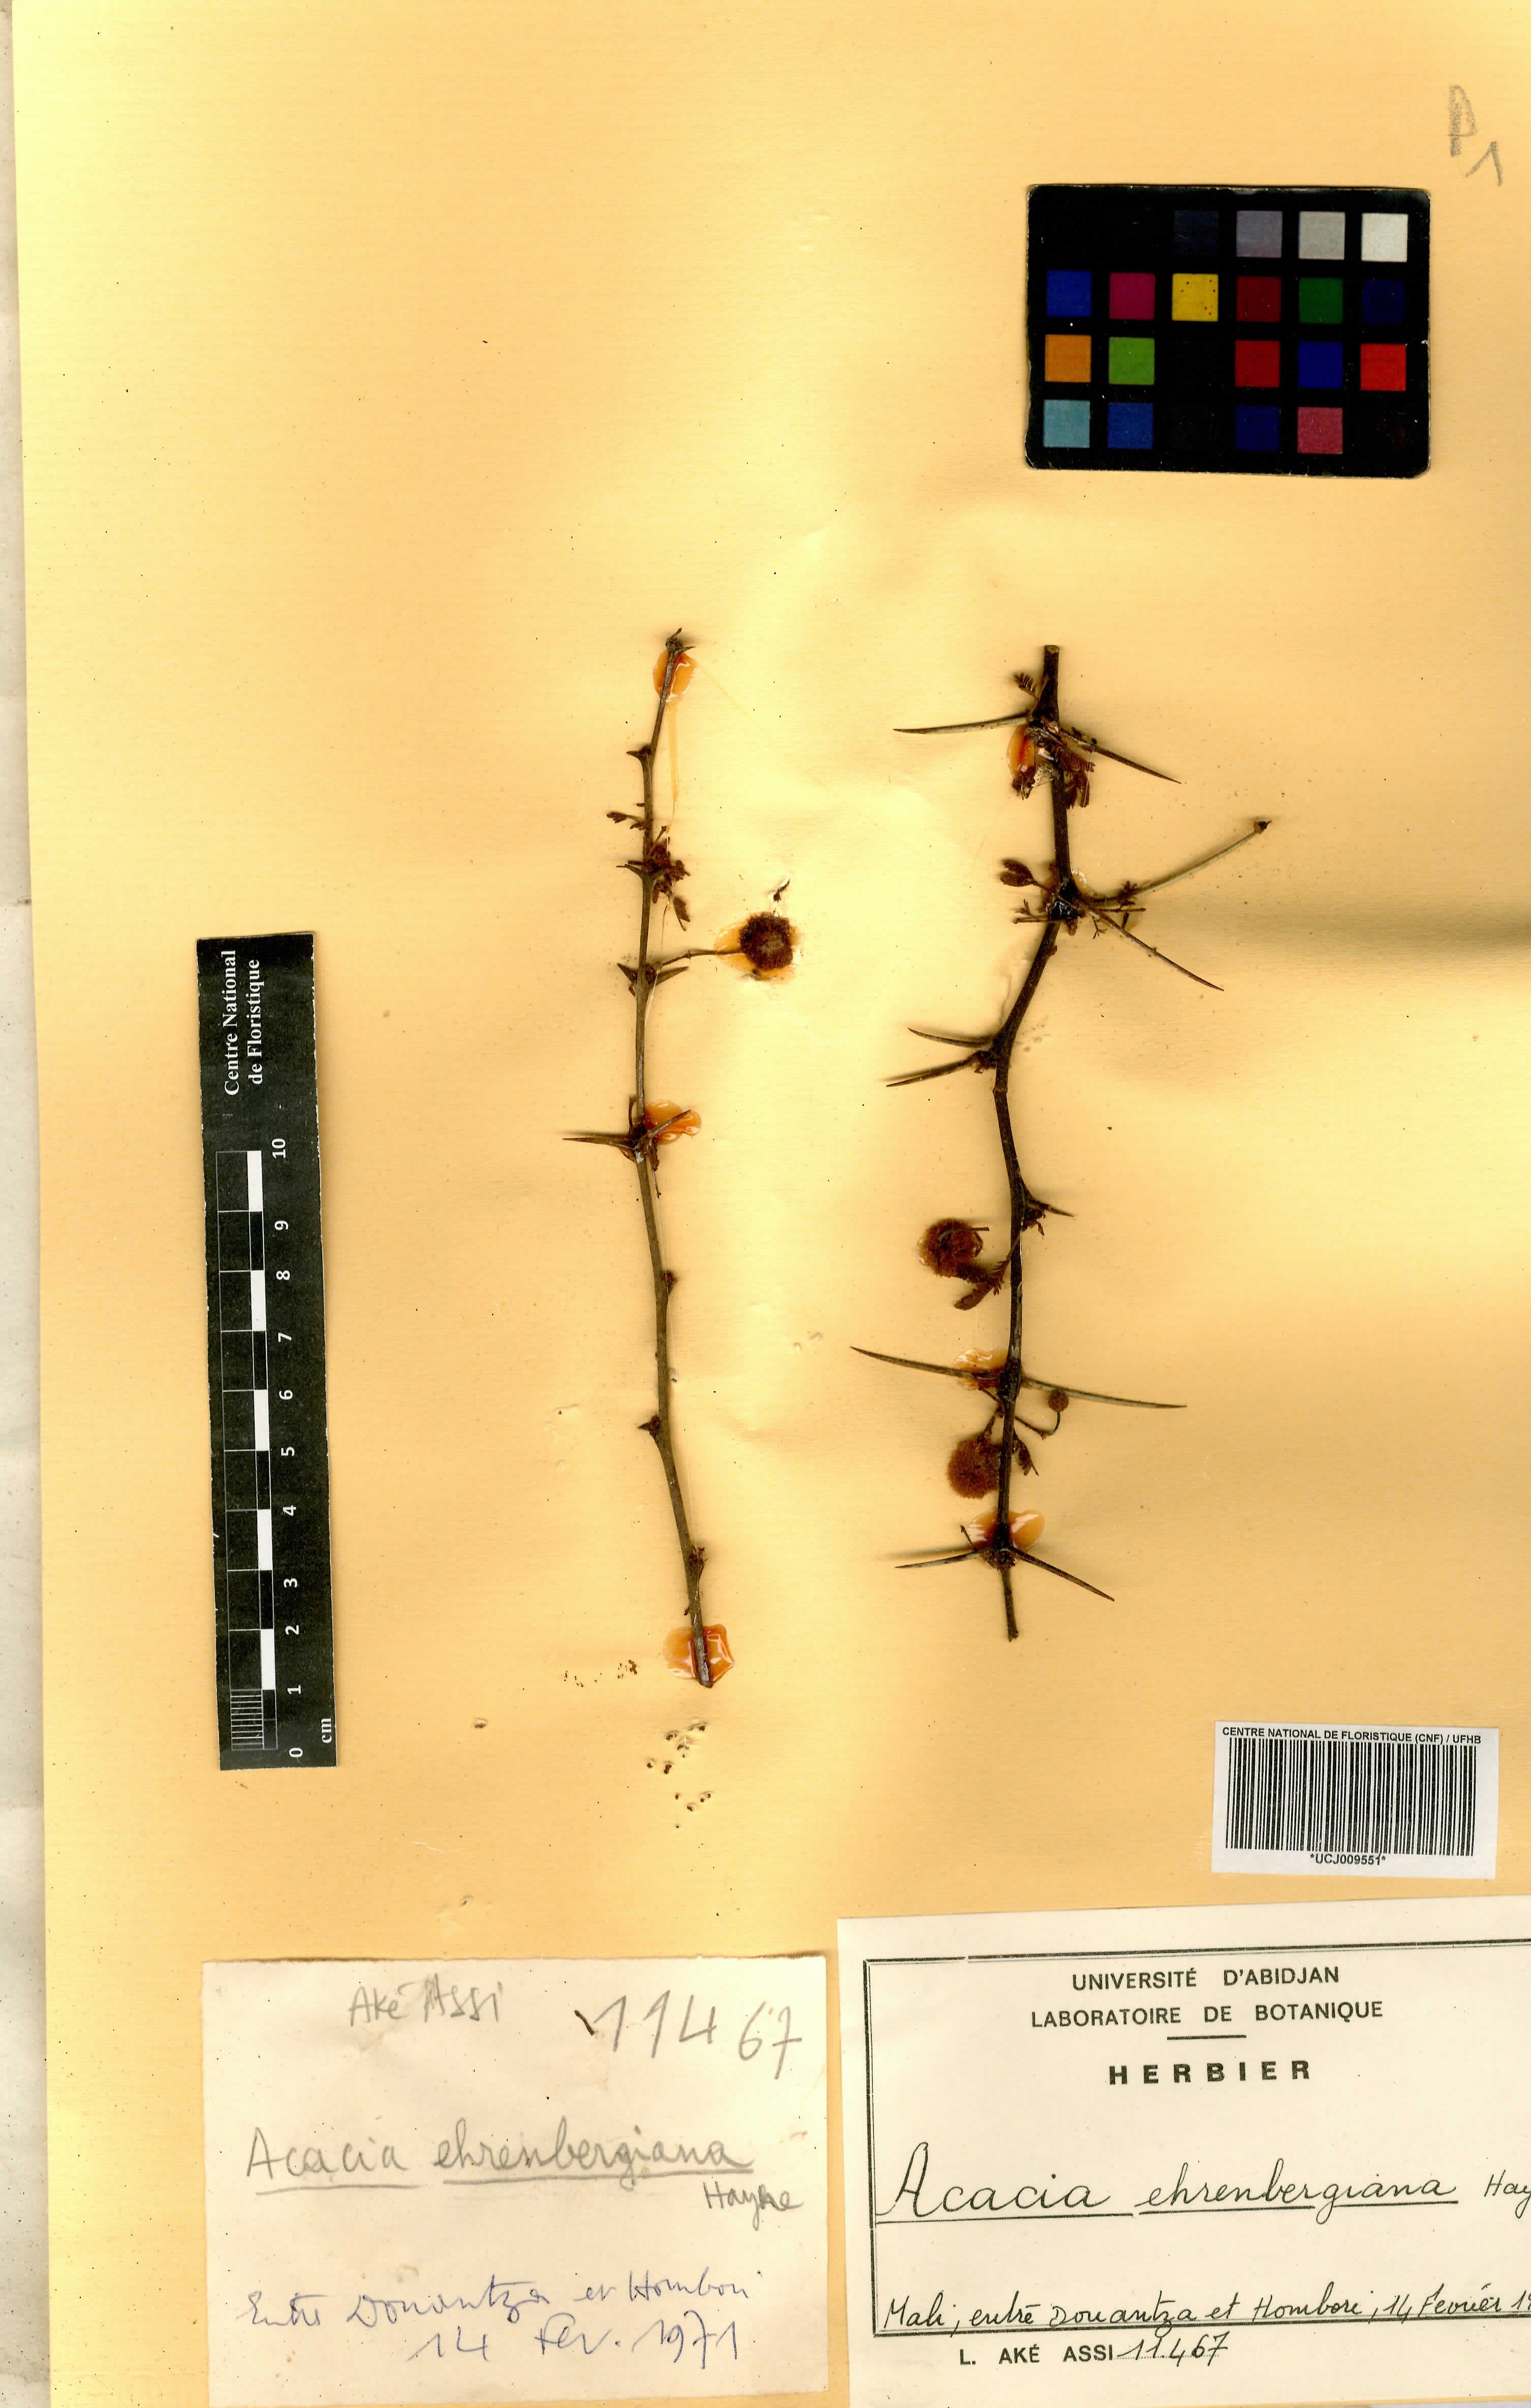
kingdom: Plantae
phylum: Tracheophyta
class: Magnoliopsida
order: Fabales
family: Fabaceae
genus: Vachellia
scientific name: Vachellia flava
